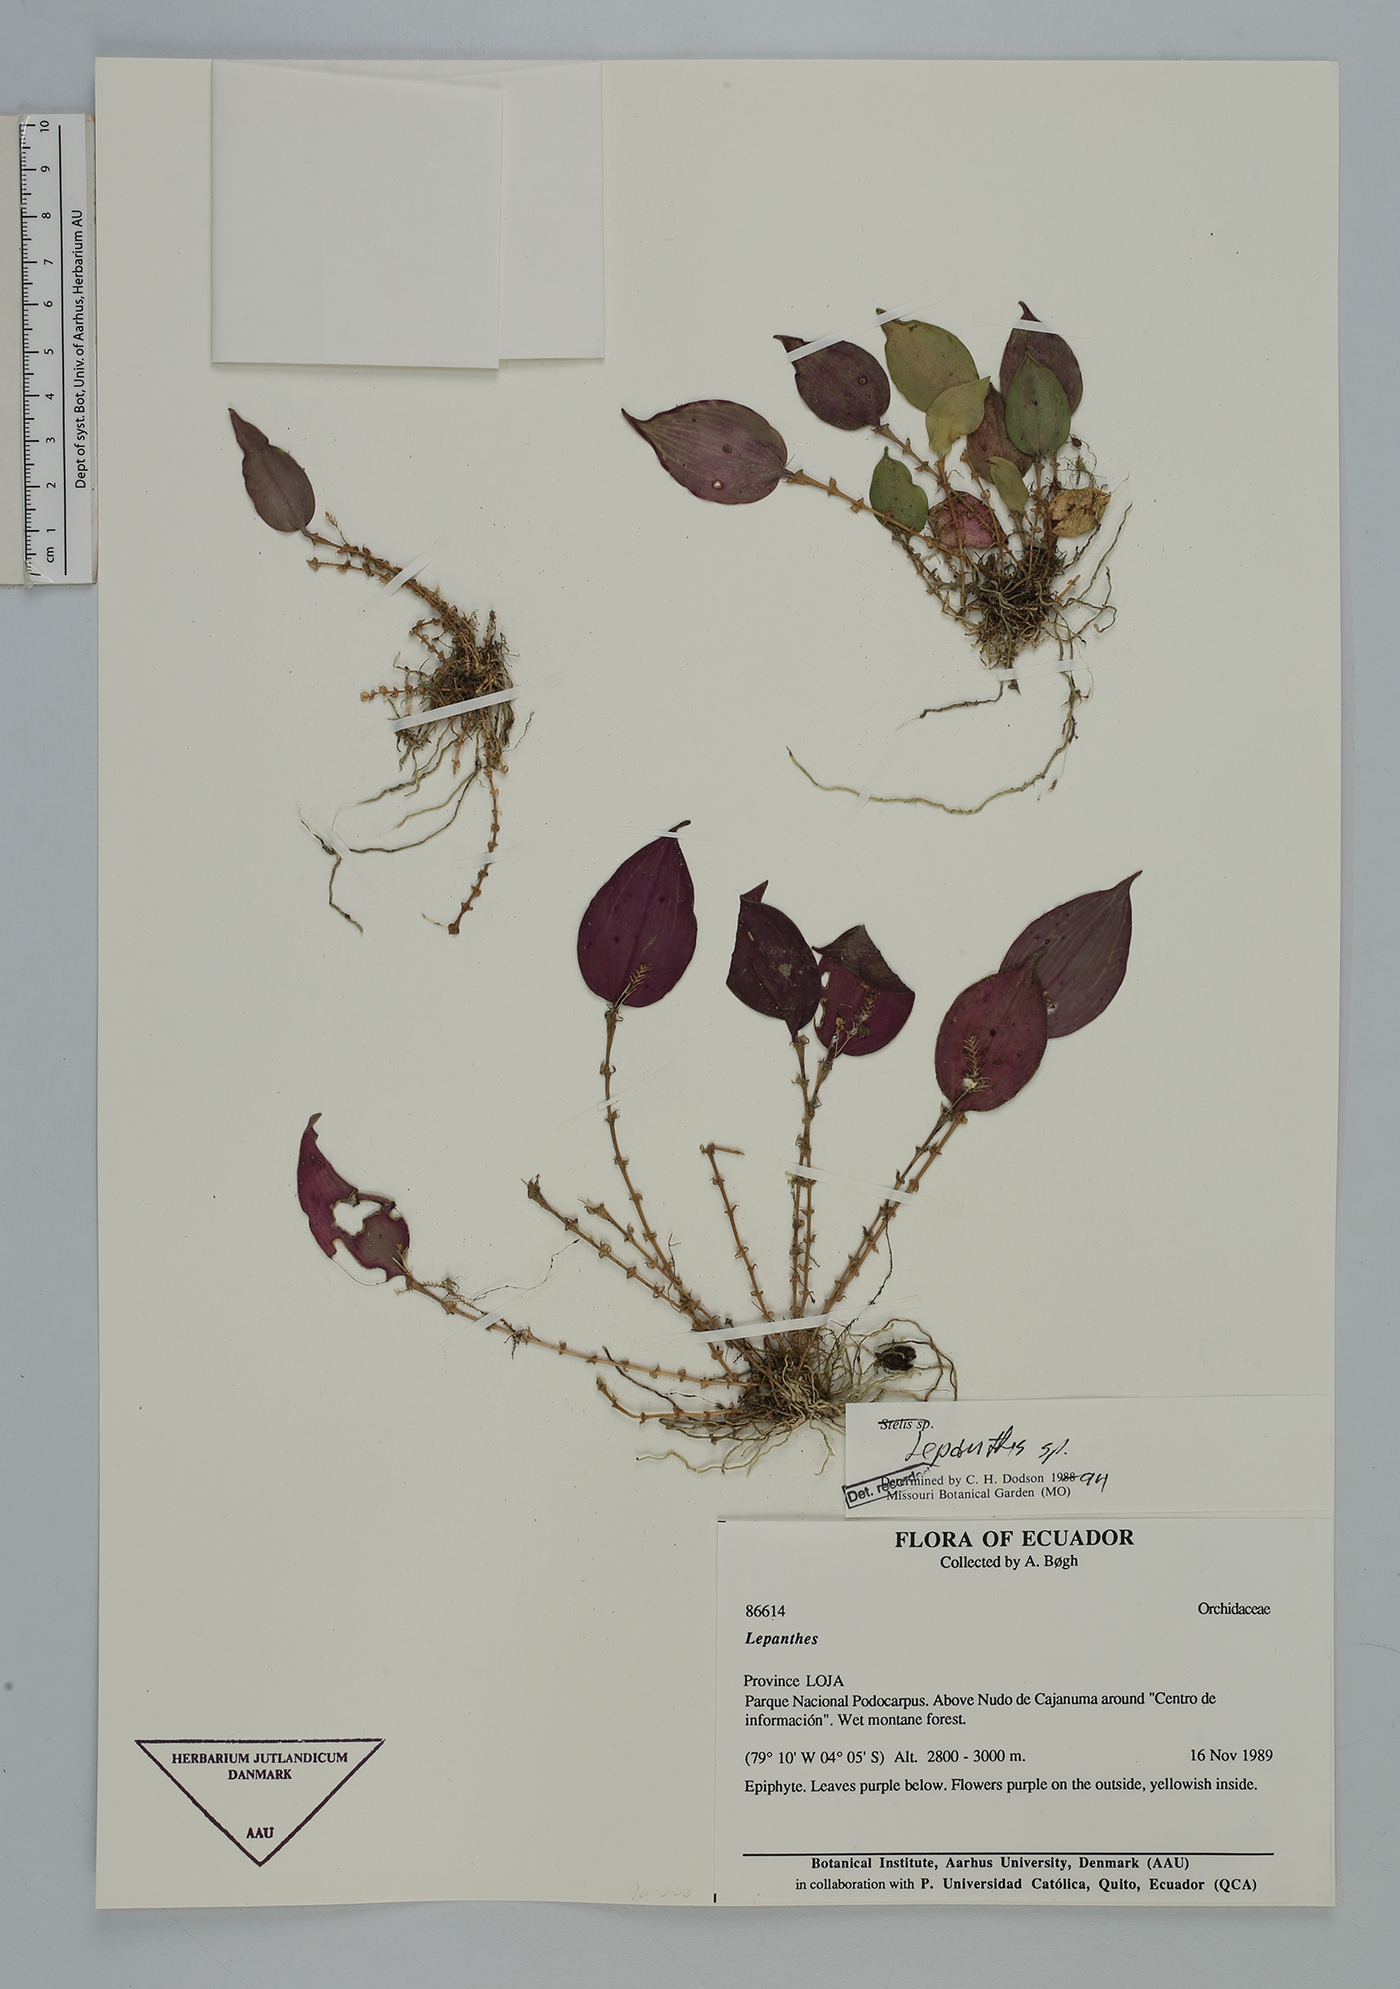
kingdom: Plantae
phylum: Tracheophyta
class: Liliopsida
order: Asparagales
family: Orchidaceae
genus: Lepanthes
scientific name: Lepanthes
